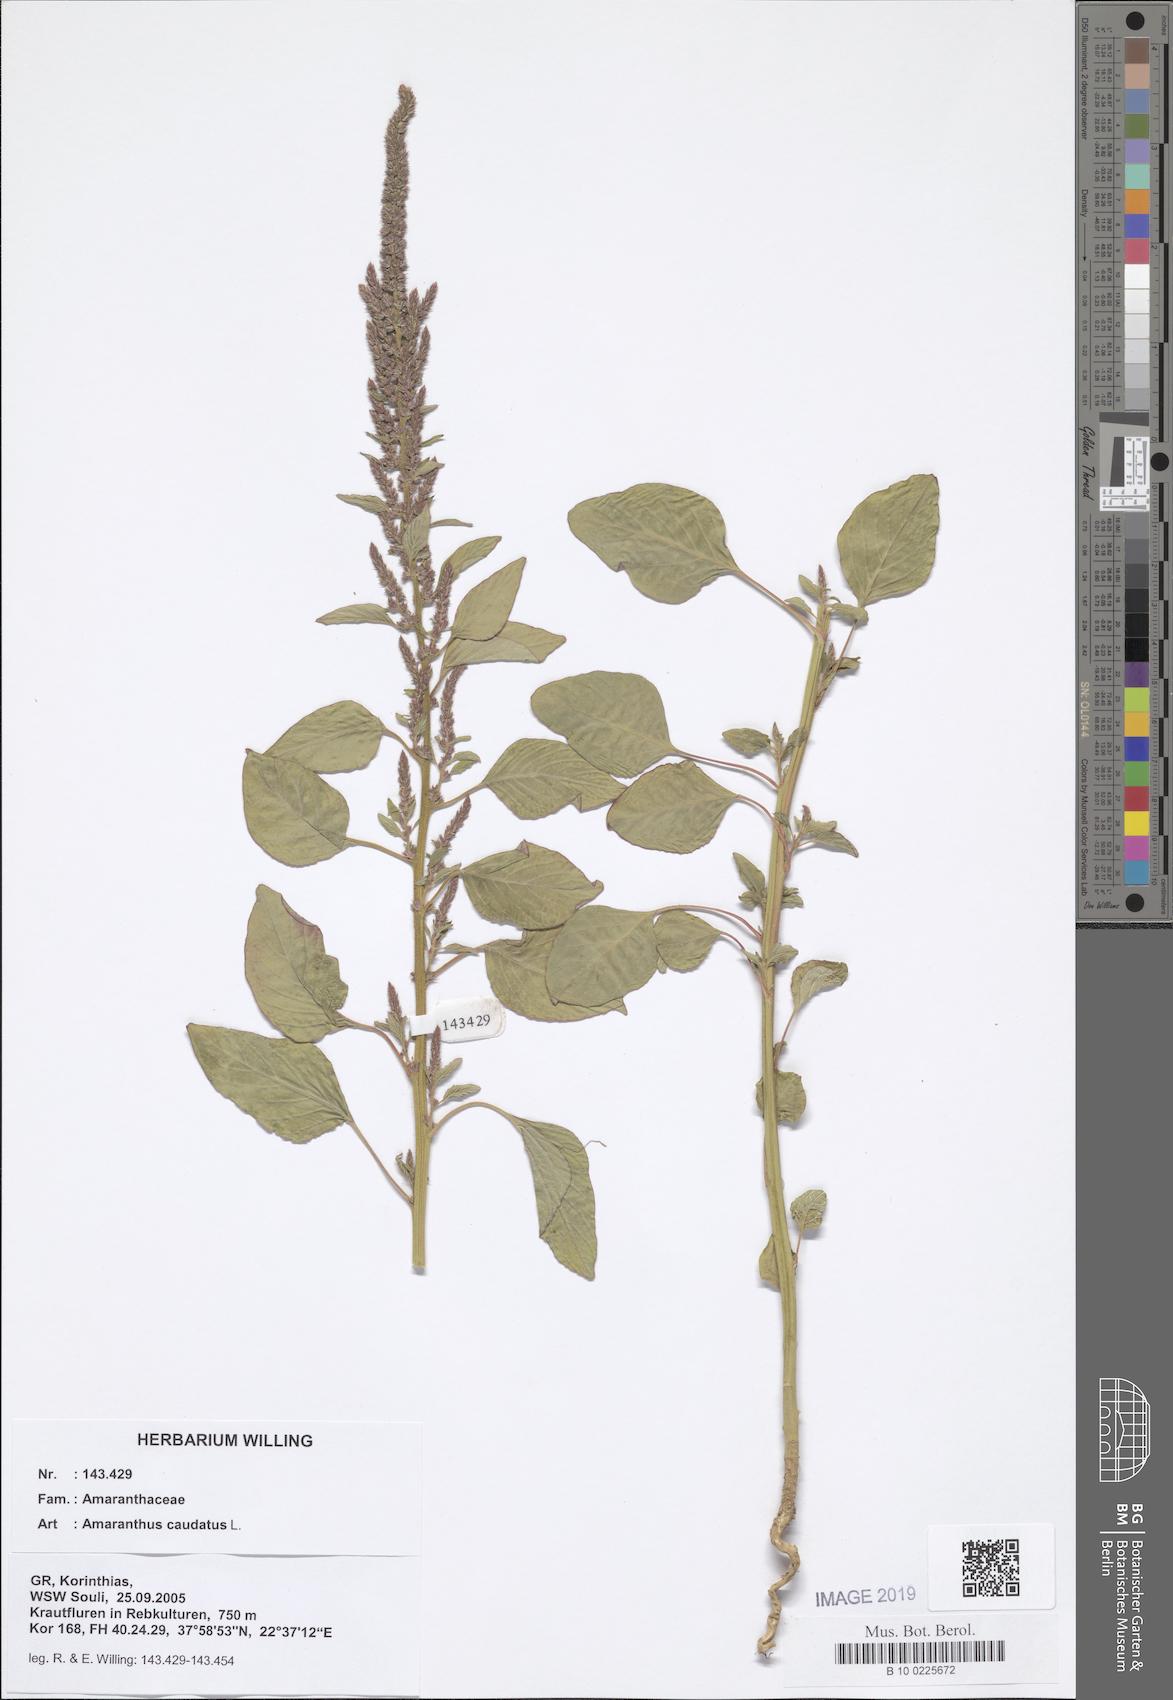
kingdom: Plantae
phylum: Tracheophyta
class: Magnoliopsida
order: Caryophyllales
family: Amaranthaceae
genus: Amaranthus
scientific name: Amaranthus caudatus
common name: Love-lies-bleeding
